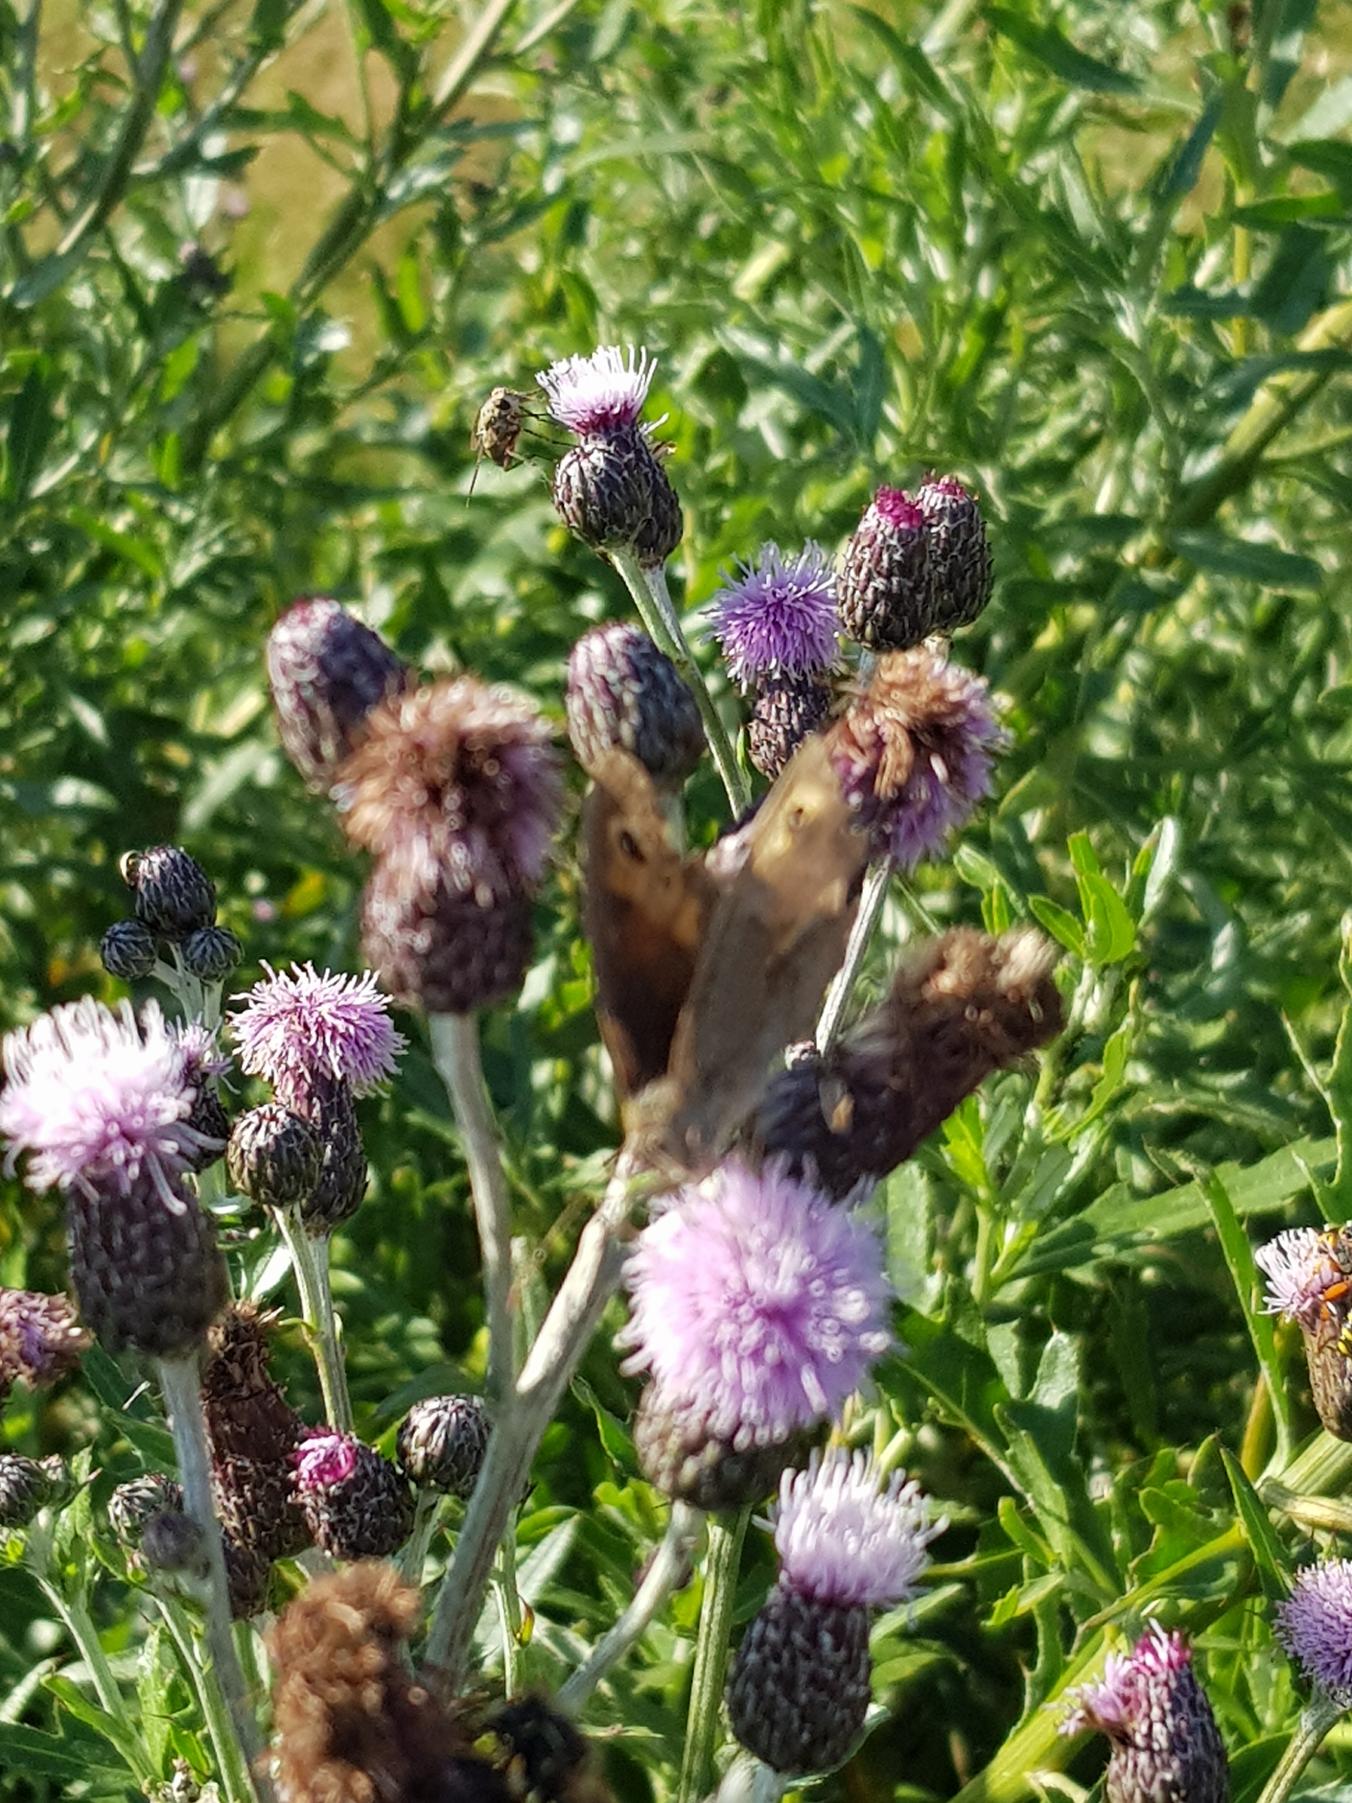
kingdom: Animalia
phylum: Arthropoda
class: Insecta
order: Lepidoptera
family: Nymphalidae
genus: Maniola
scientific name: Maniola jurtina
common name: Græsrandøje
